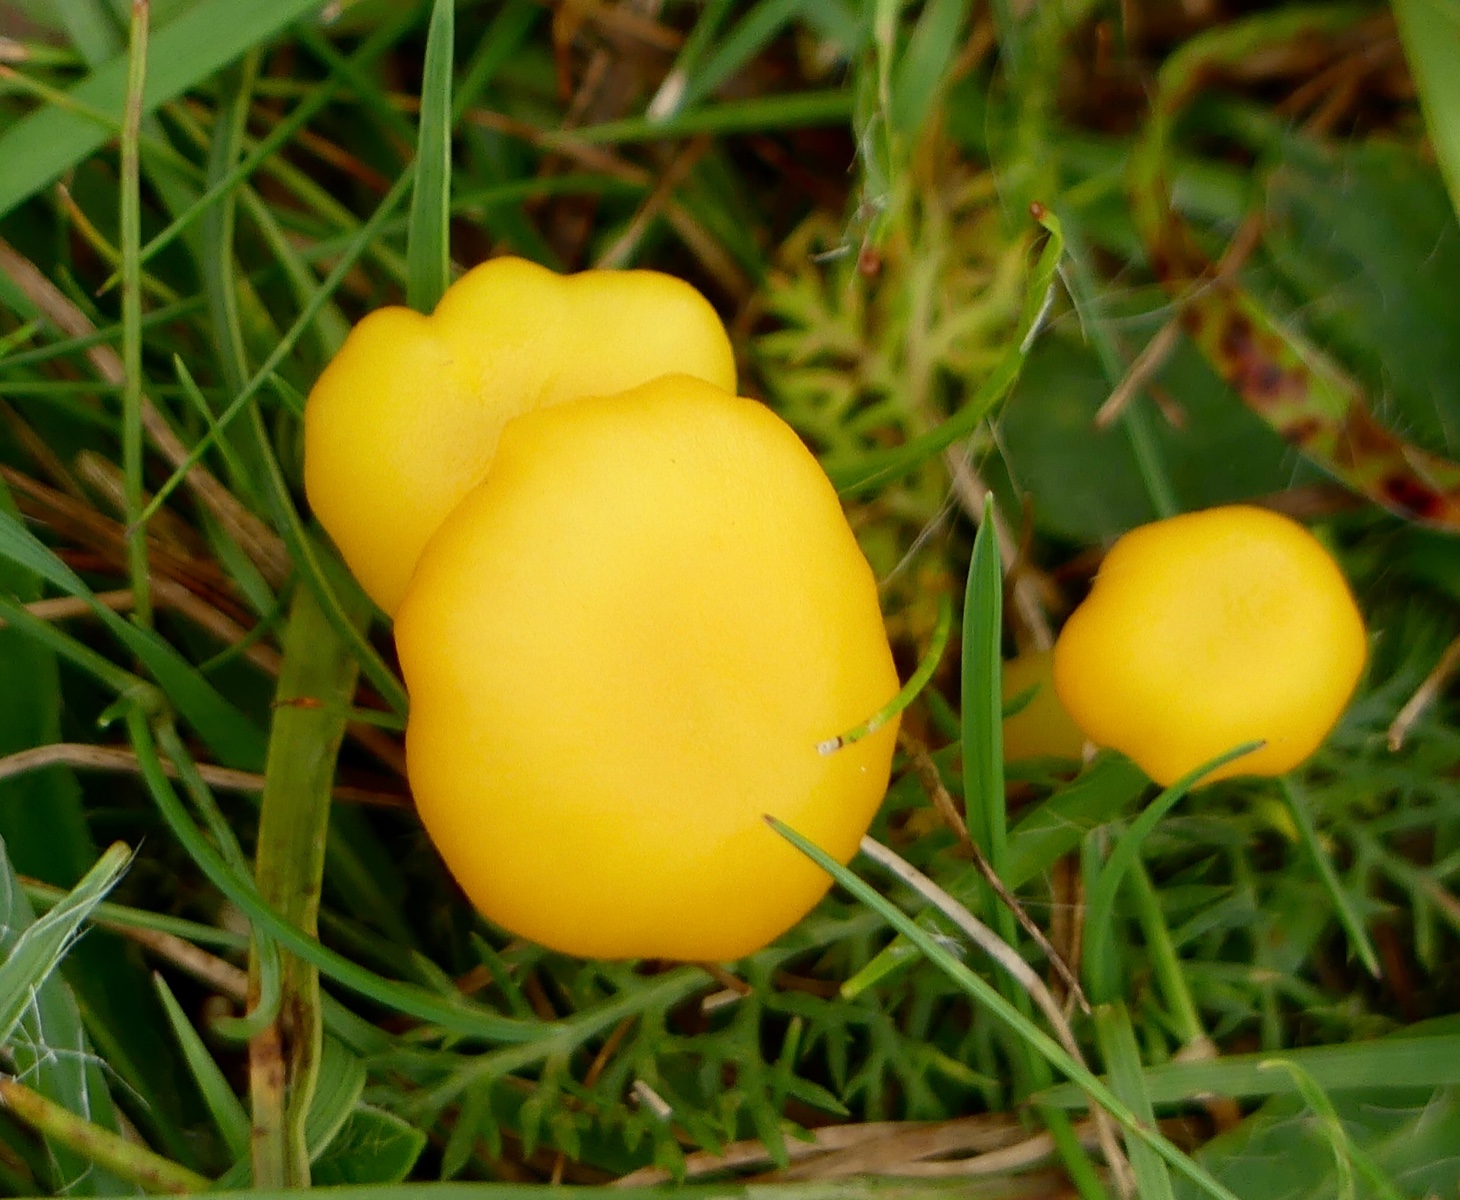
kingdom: Fungi
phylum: Basidiomycota
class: Agaricomycetes
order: Agaricales
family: Hygrophoraceae
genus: Hygrocybe
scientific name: Hygrocybe ceracea
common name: voksgul vokshat
